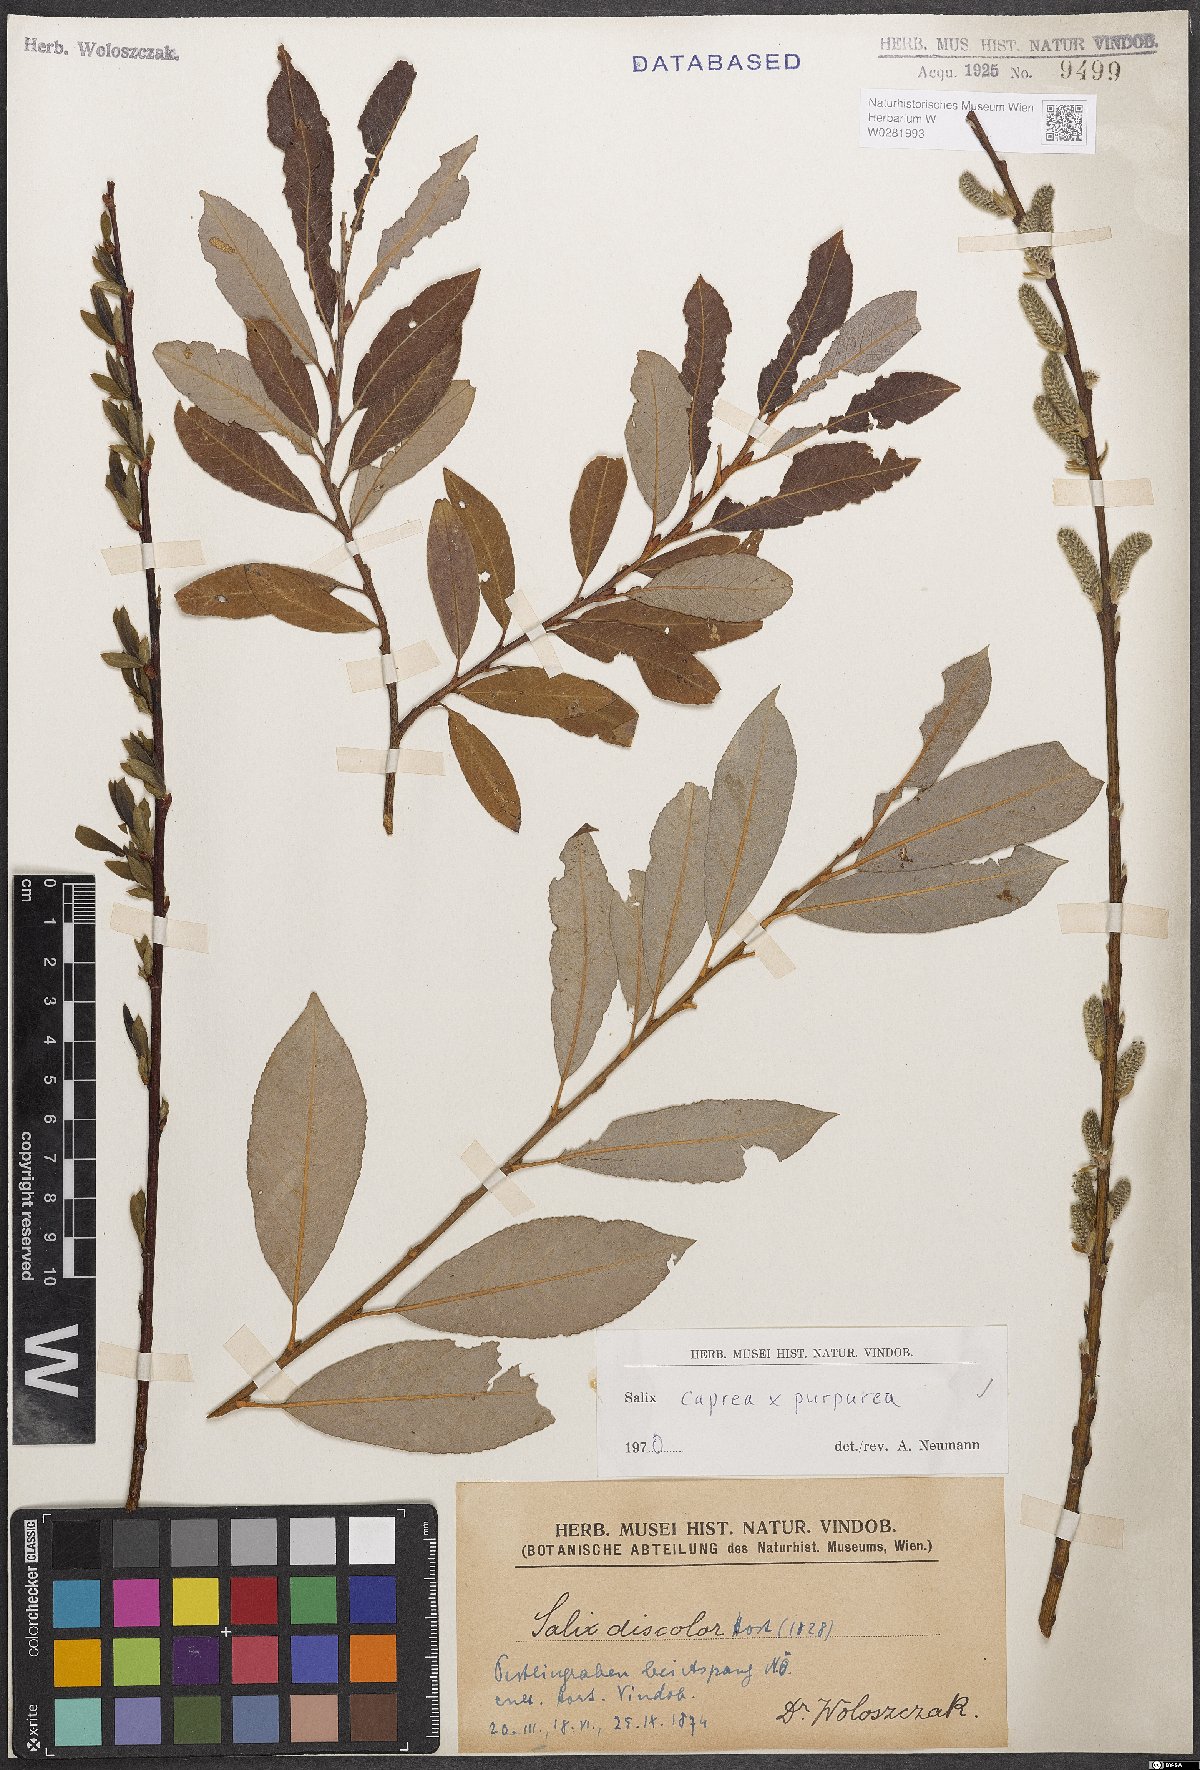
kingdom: Plantae
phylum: Tracheophyta
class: Magnoliopsida
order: Malpighiales
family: Salicaceae
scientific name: Salicaceae
